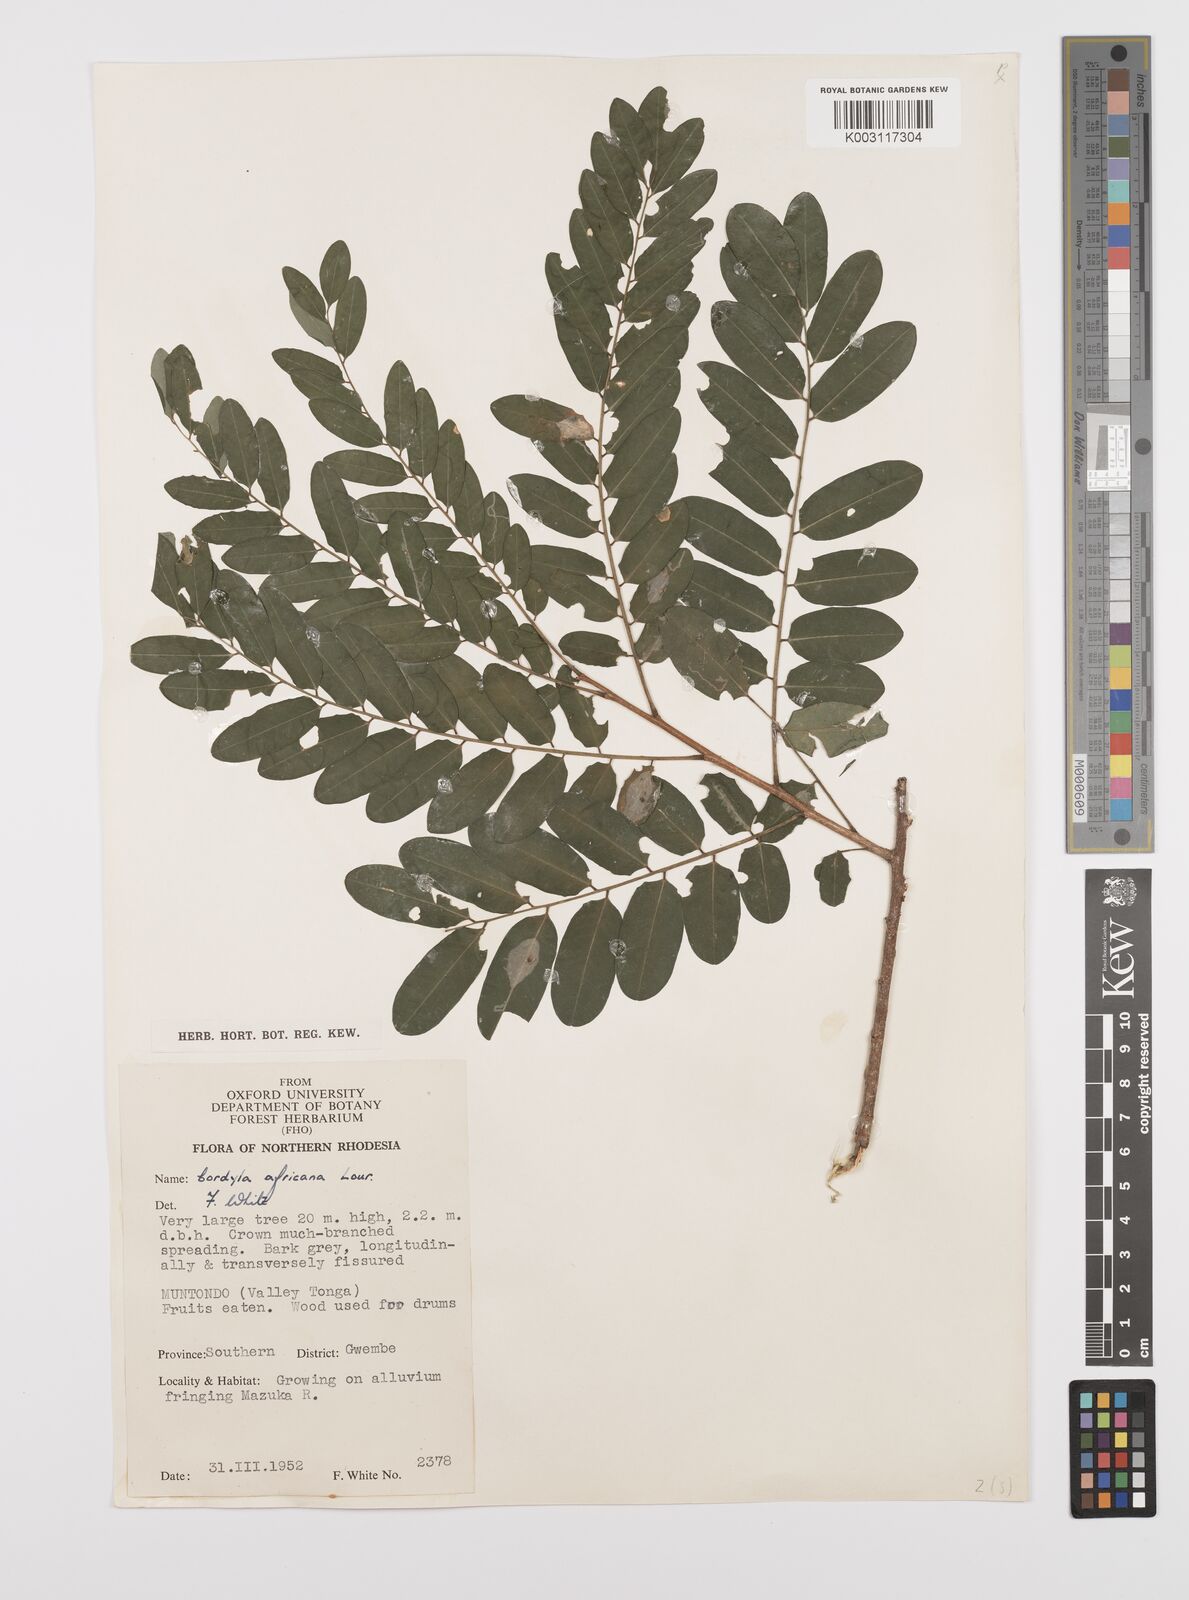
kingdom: Plantae
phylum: Tracheophyta
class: Magnoliopsida
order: Fabales
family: Fabaceae
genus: Cordyla
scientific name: Cordyla africana
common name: Wild mango
